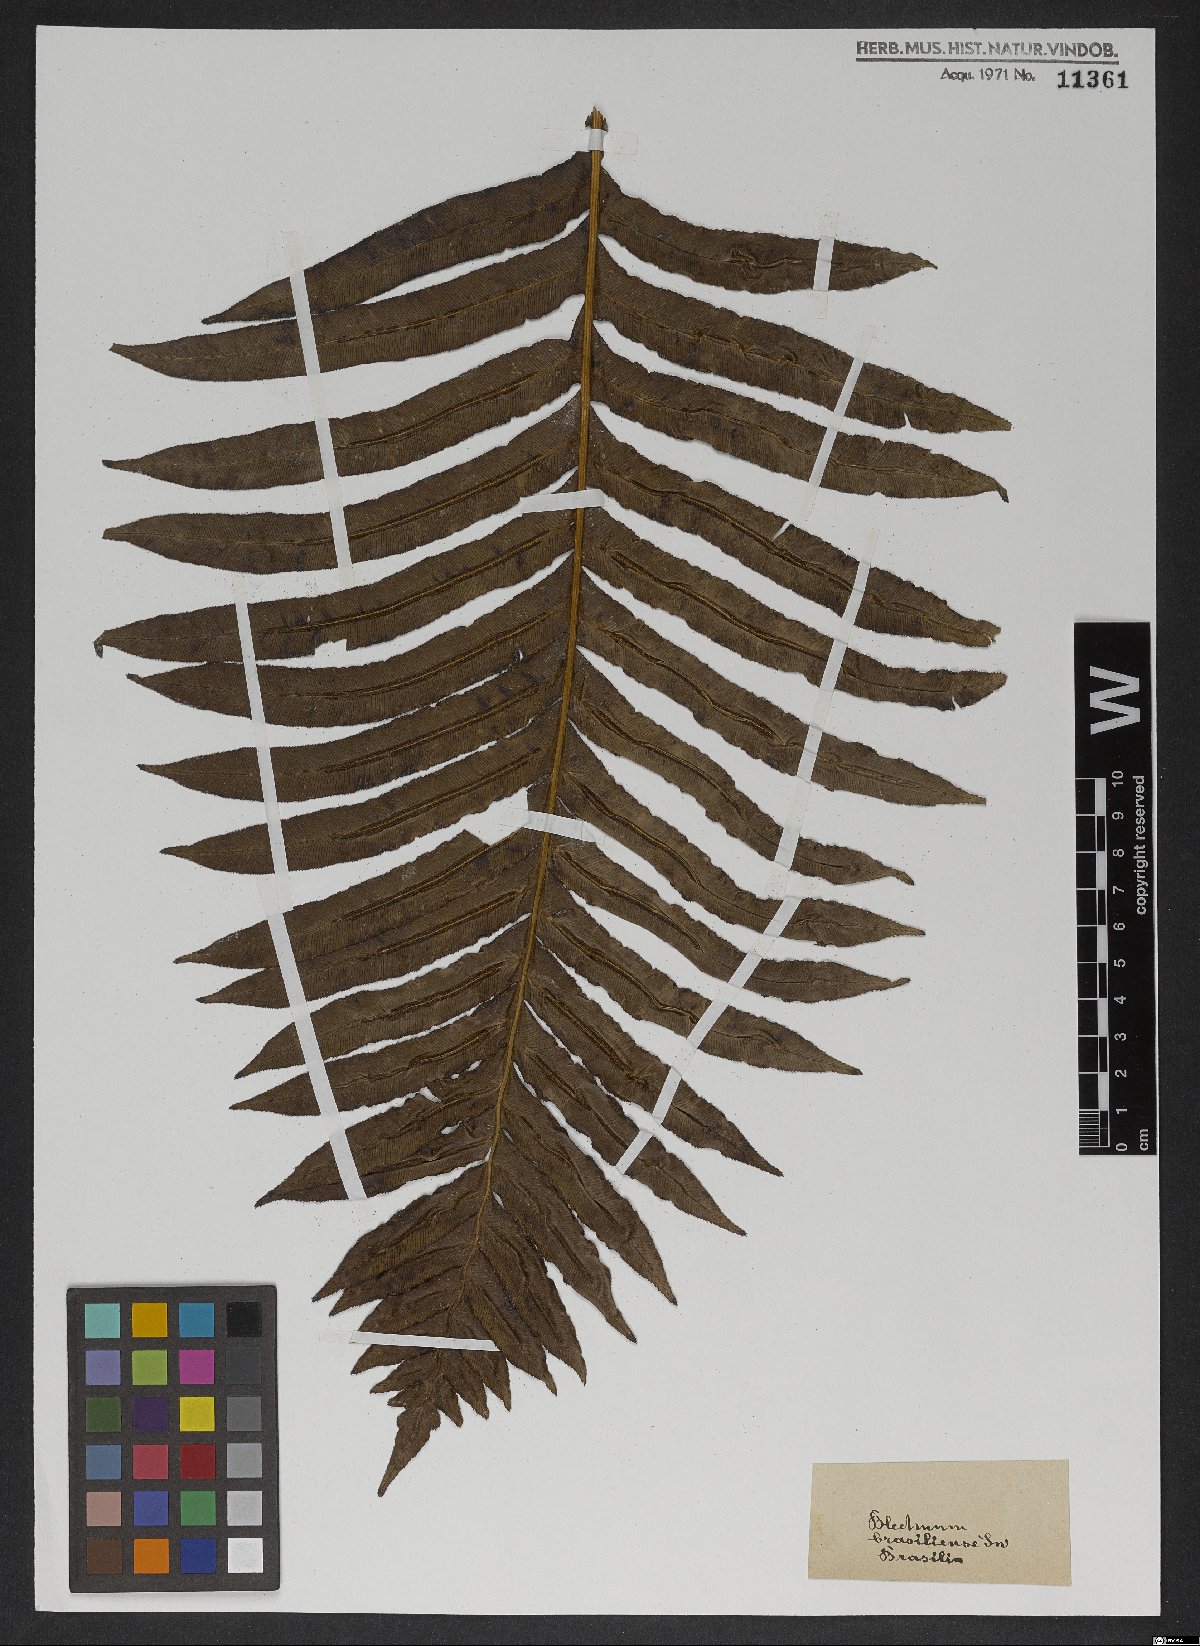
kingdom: Plantae
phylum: Tracheophyta
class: Polypodiopsida
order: Polypodiales
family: Blechnaceae
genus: Neoblechnum
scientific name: Neoblechnum brasiliense
